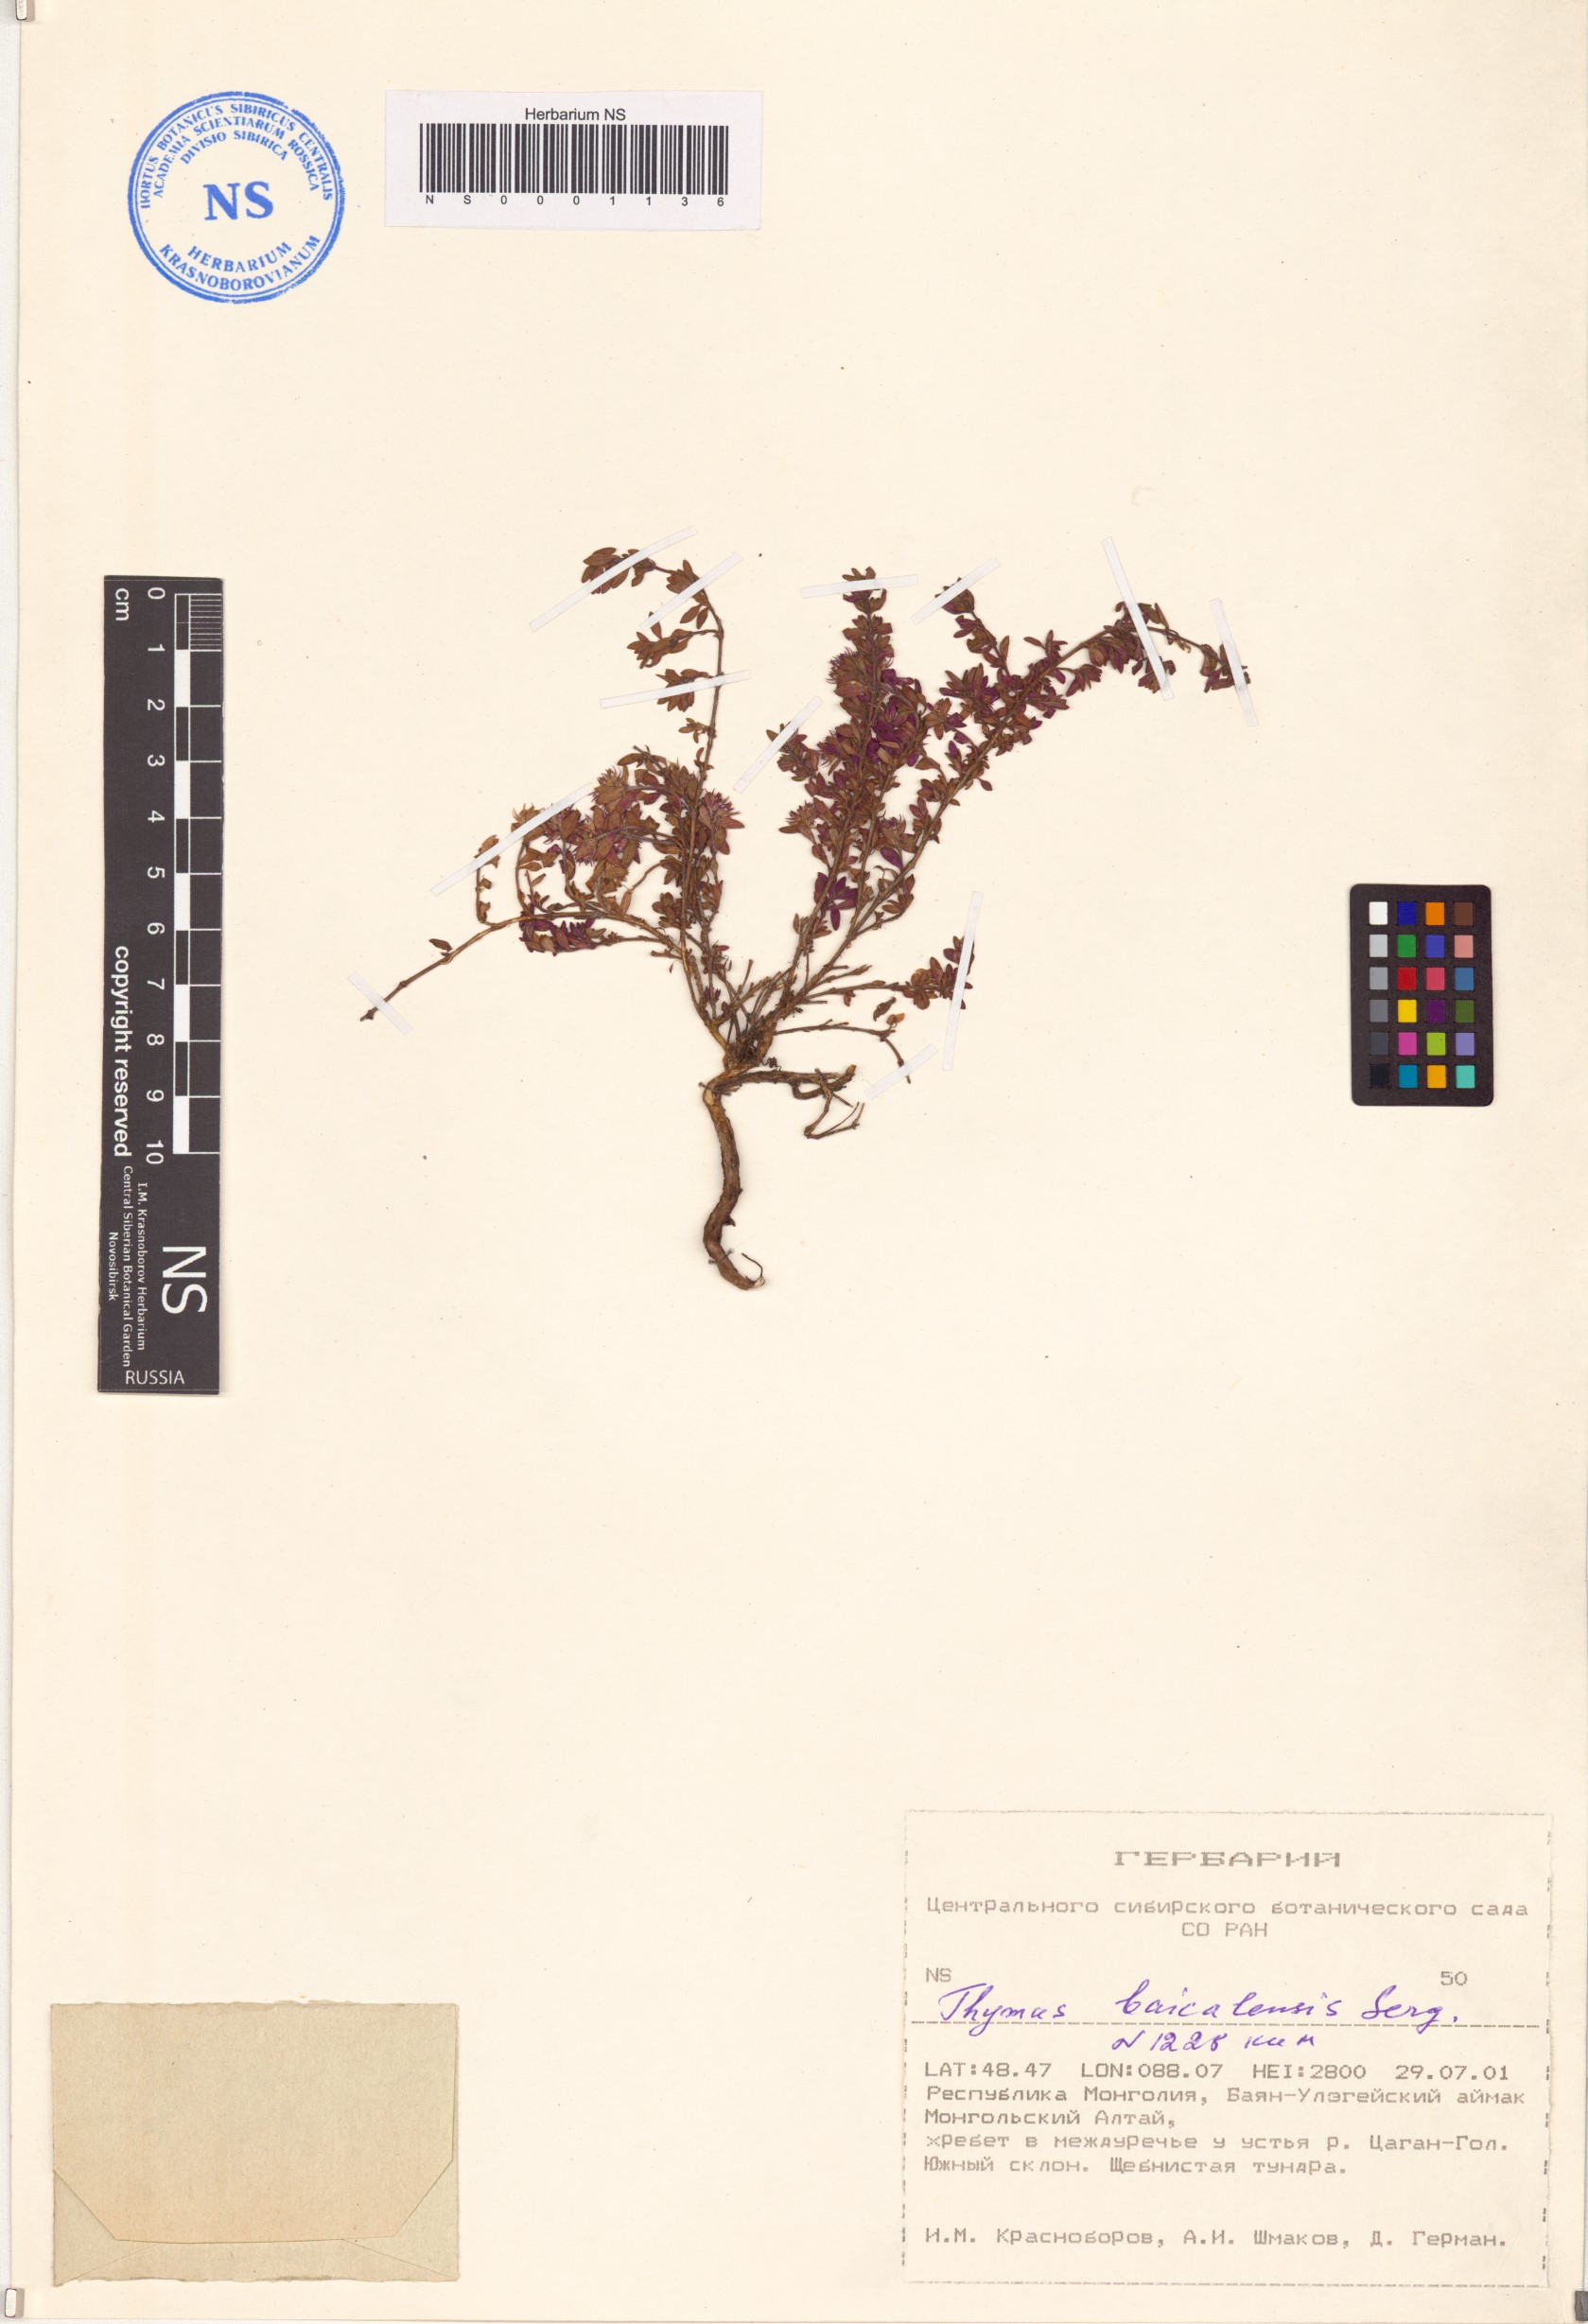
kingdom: Plantae
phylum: Tracheophyta
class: Magnoliopsida
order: Lamiales
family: Lamiaceae
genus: Thymus
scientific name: Thymus baicalensis
